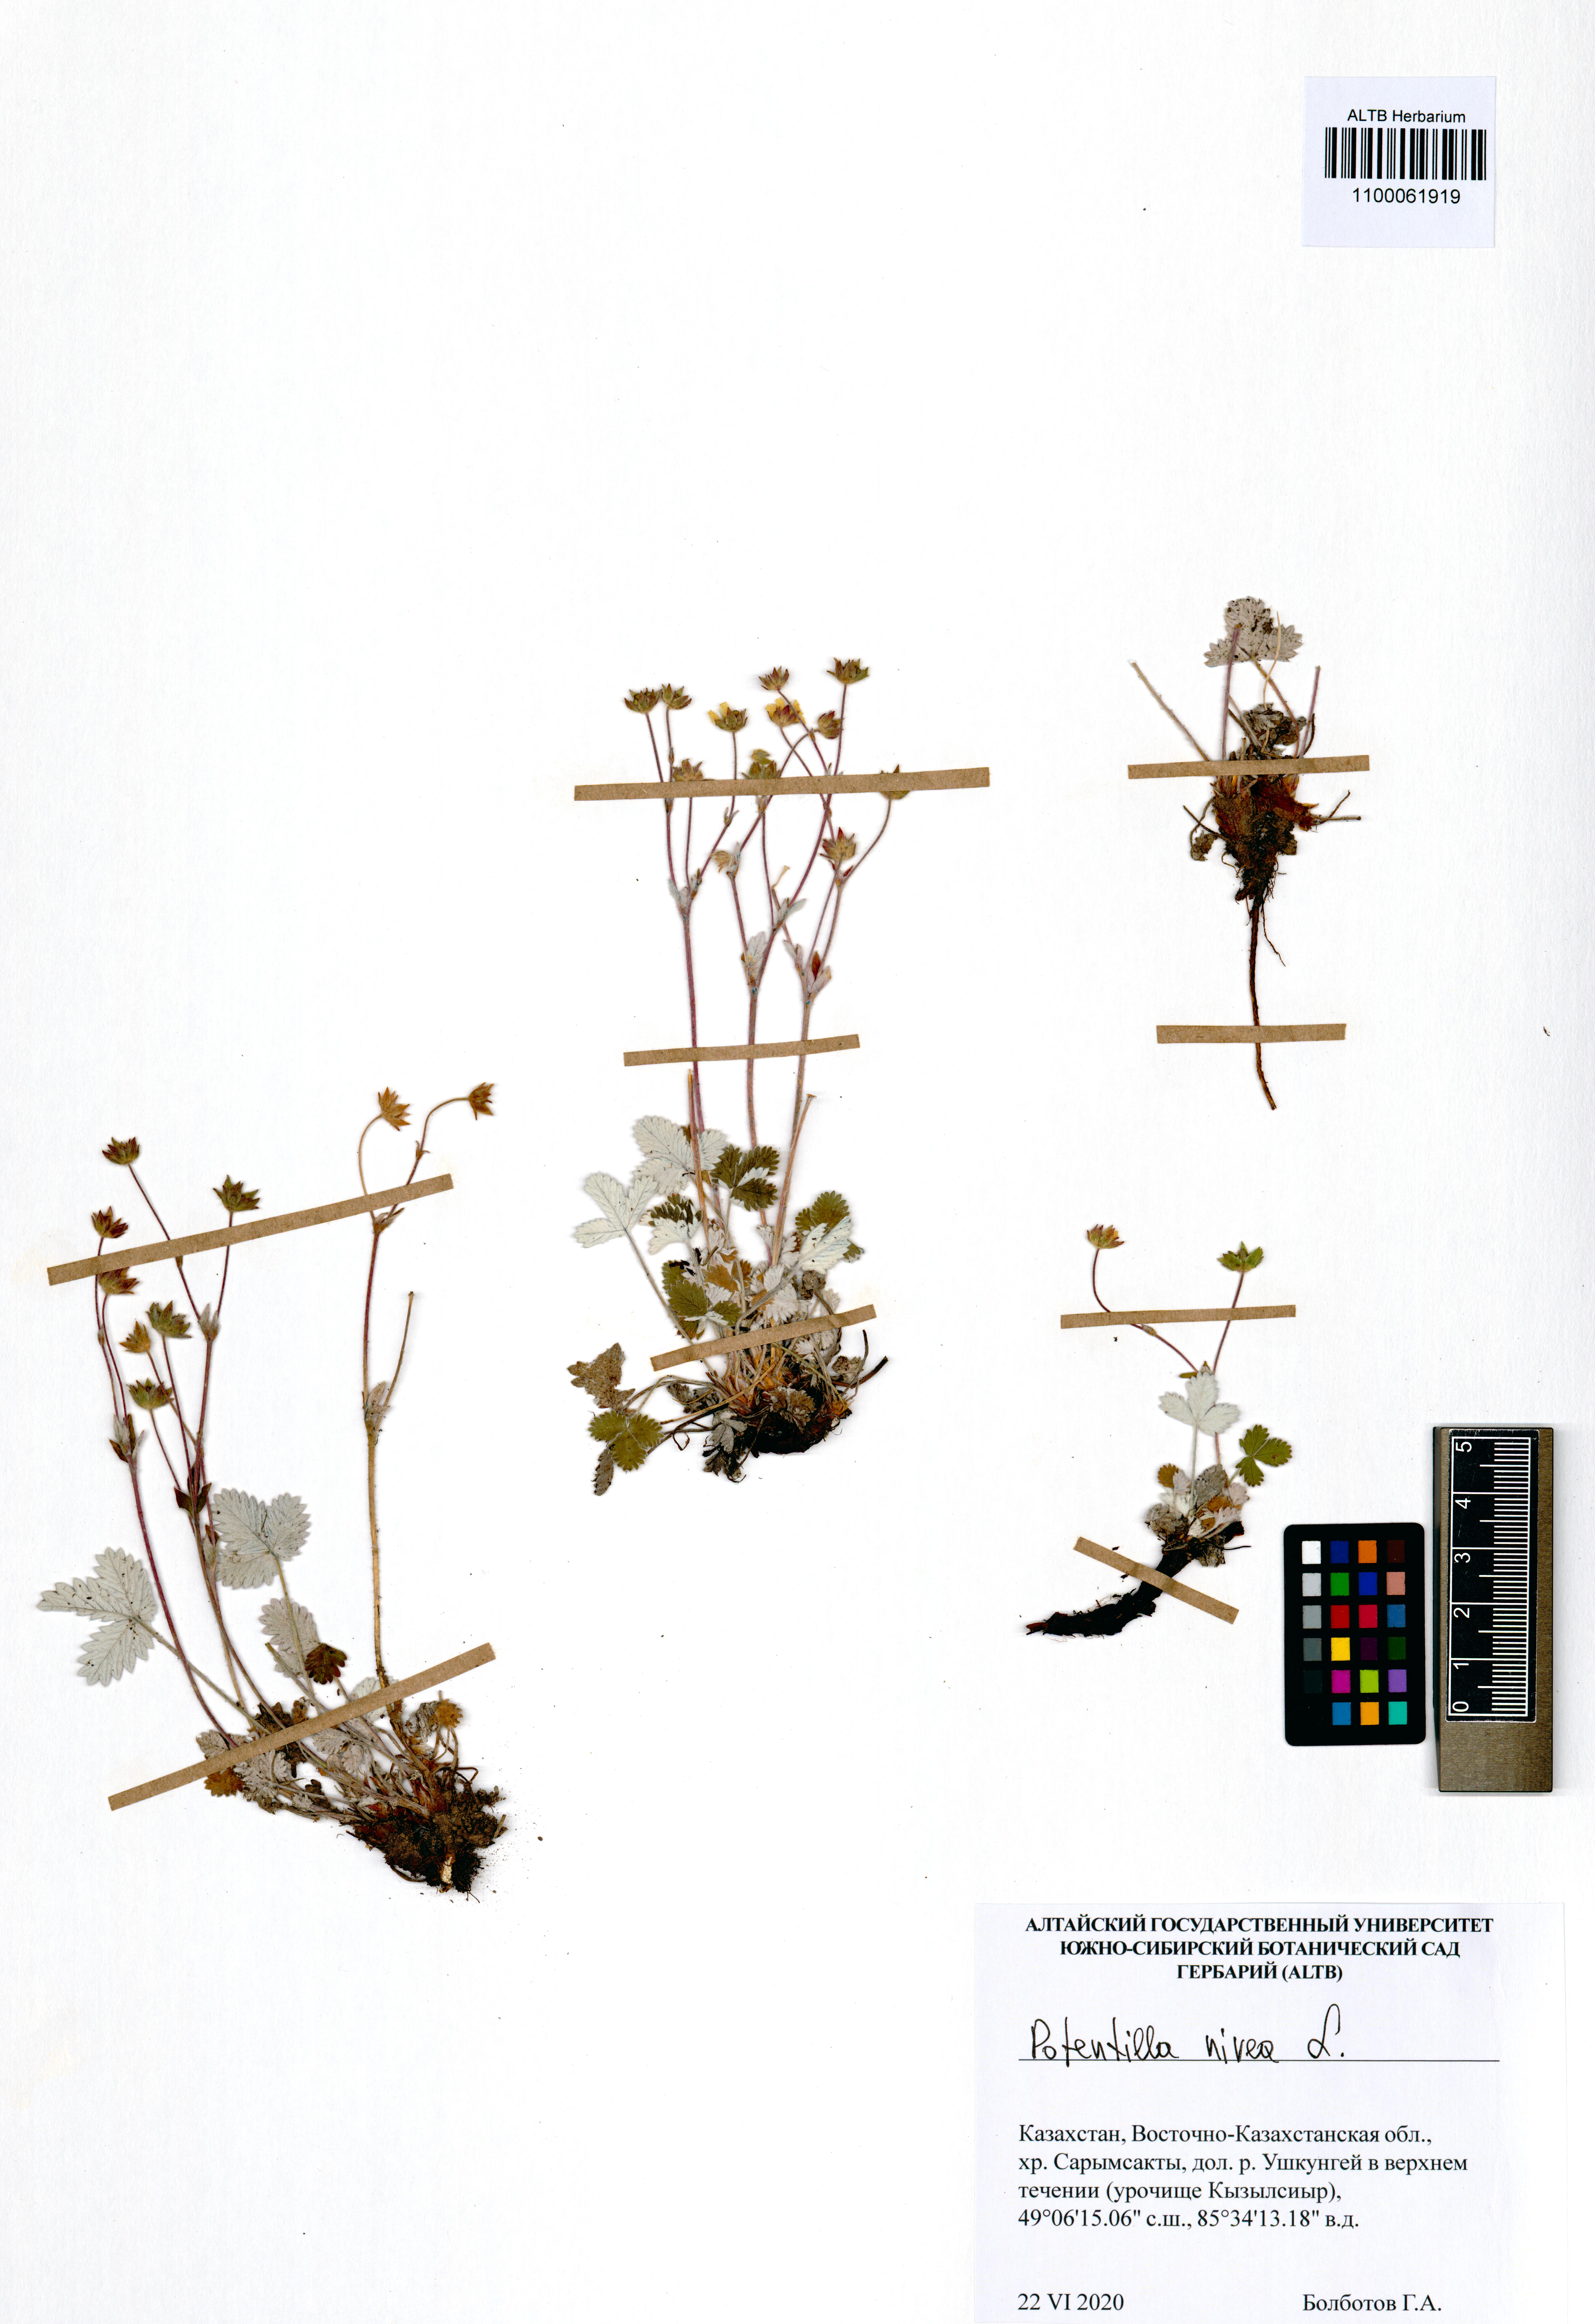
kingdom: Plantae
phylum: Tracheophyta
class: Magnoliopsida
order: Rosales
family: Rosaceae
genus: Potentilla
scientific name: Potentilla nivea
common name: Snow cinquefoil
